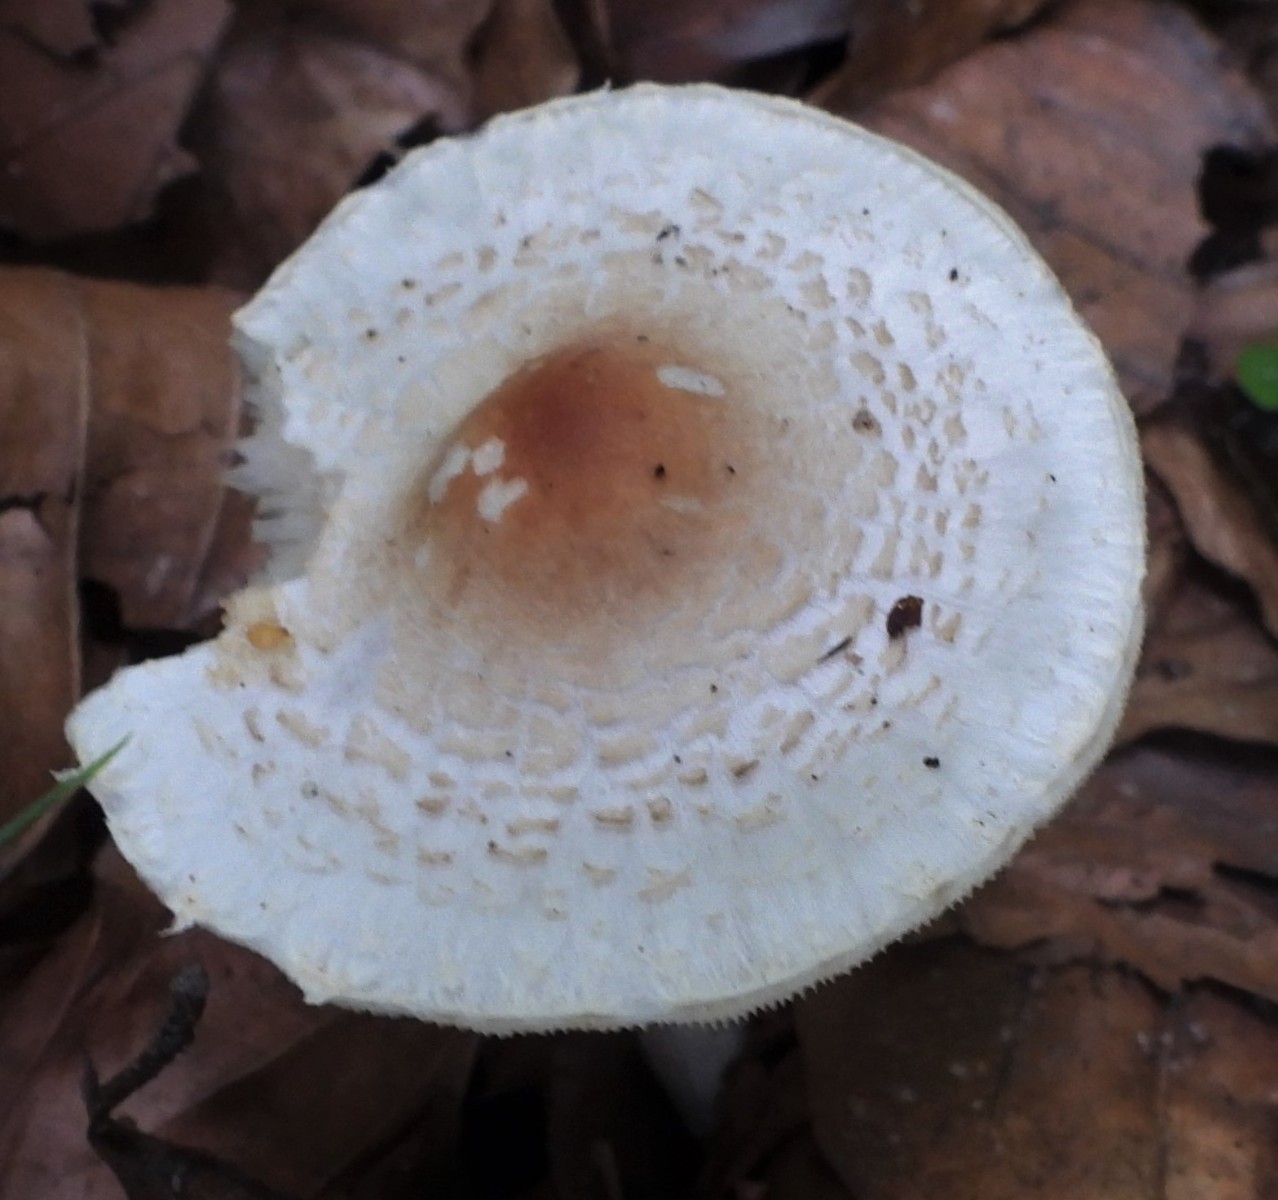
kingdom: Fungi
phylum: Basidiomycota
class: Agaricomycetes
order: Agaricales
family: Agaricaceae
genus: Lepiota
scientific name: Lepiota cristata
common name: stinkende parasolhat
